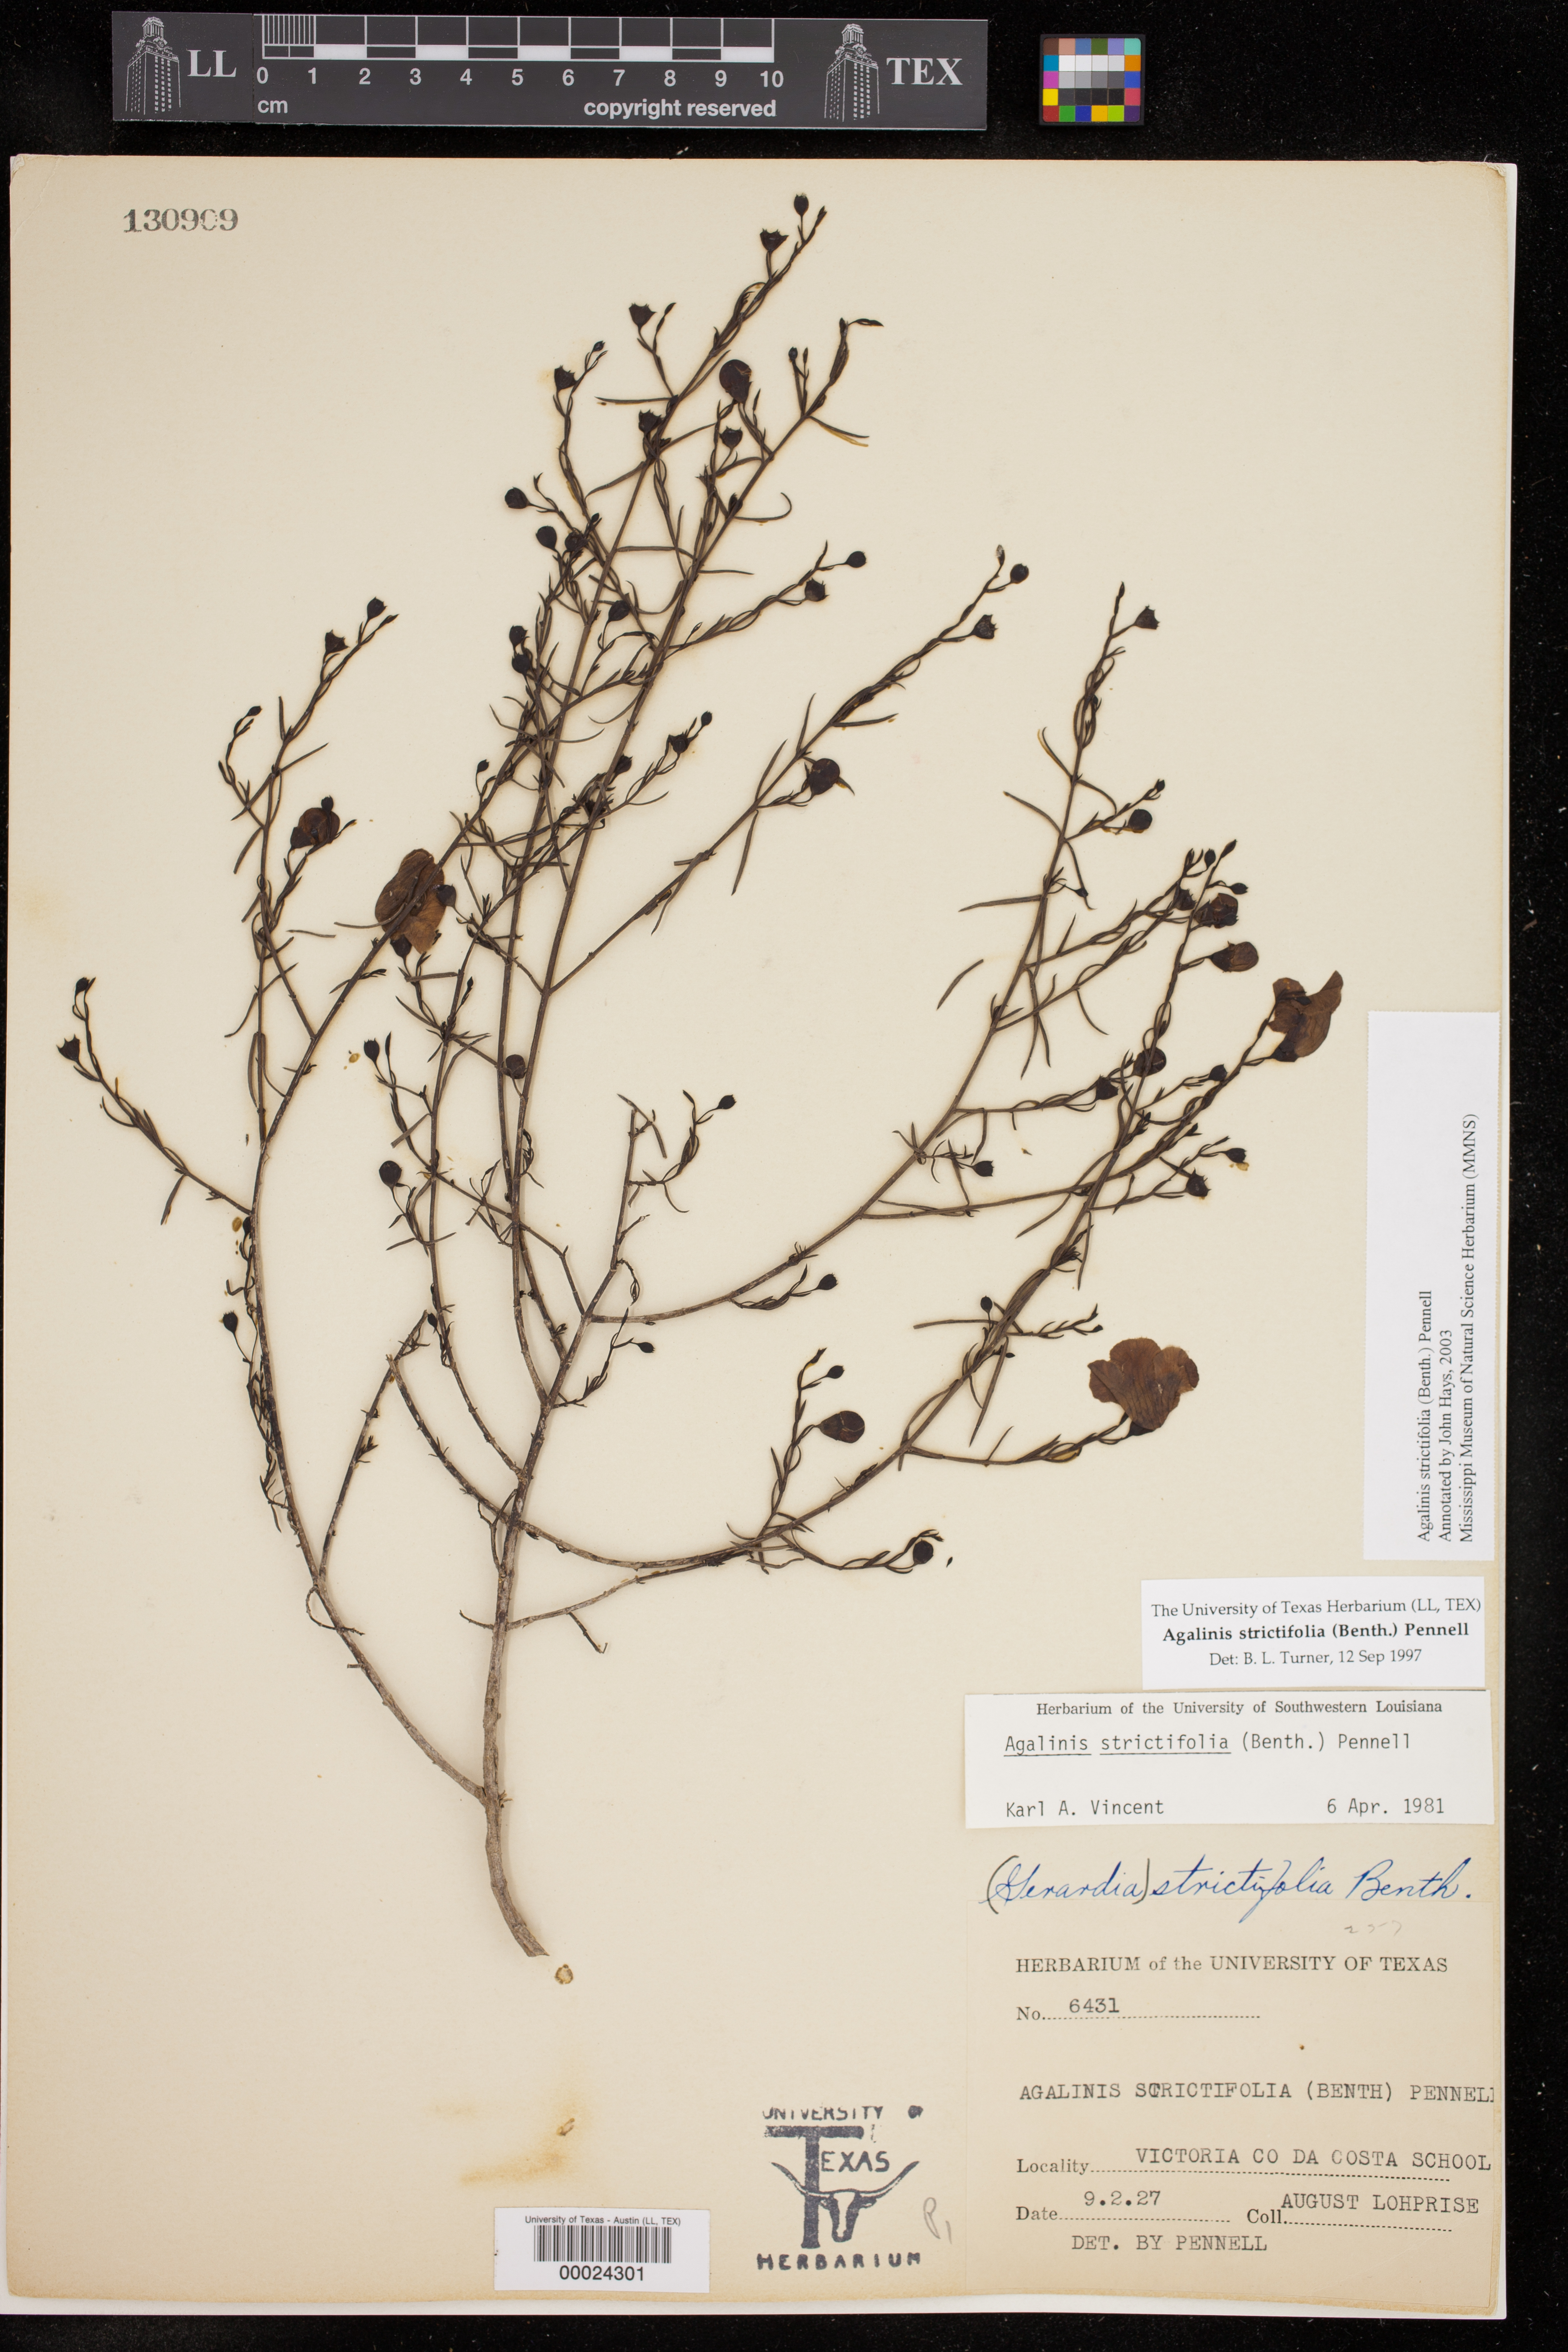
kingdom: Plantae
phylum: Tracheophyta
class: Magnoliopsida
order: Lamiales
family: Orobanchaceae
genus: Agalinis
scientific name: Agalinis strictifolia
